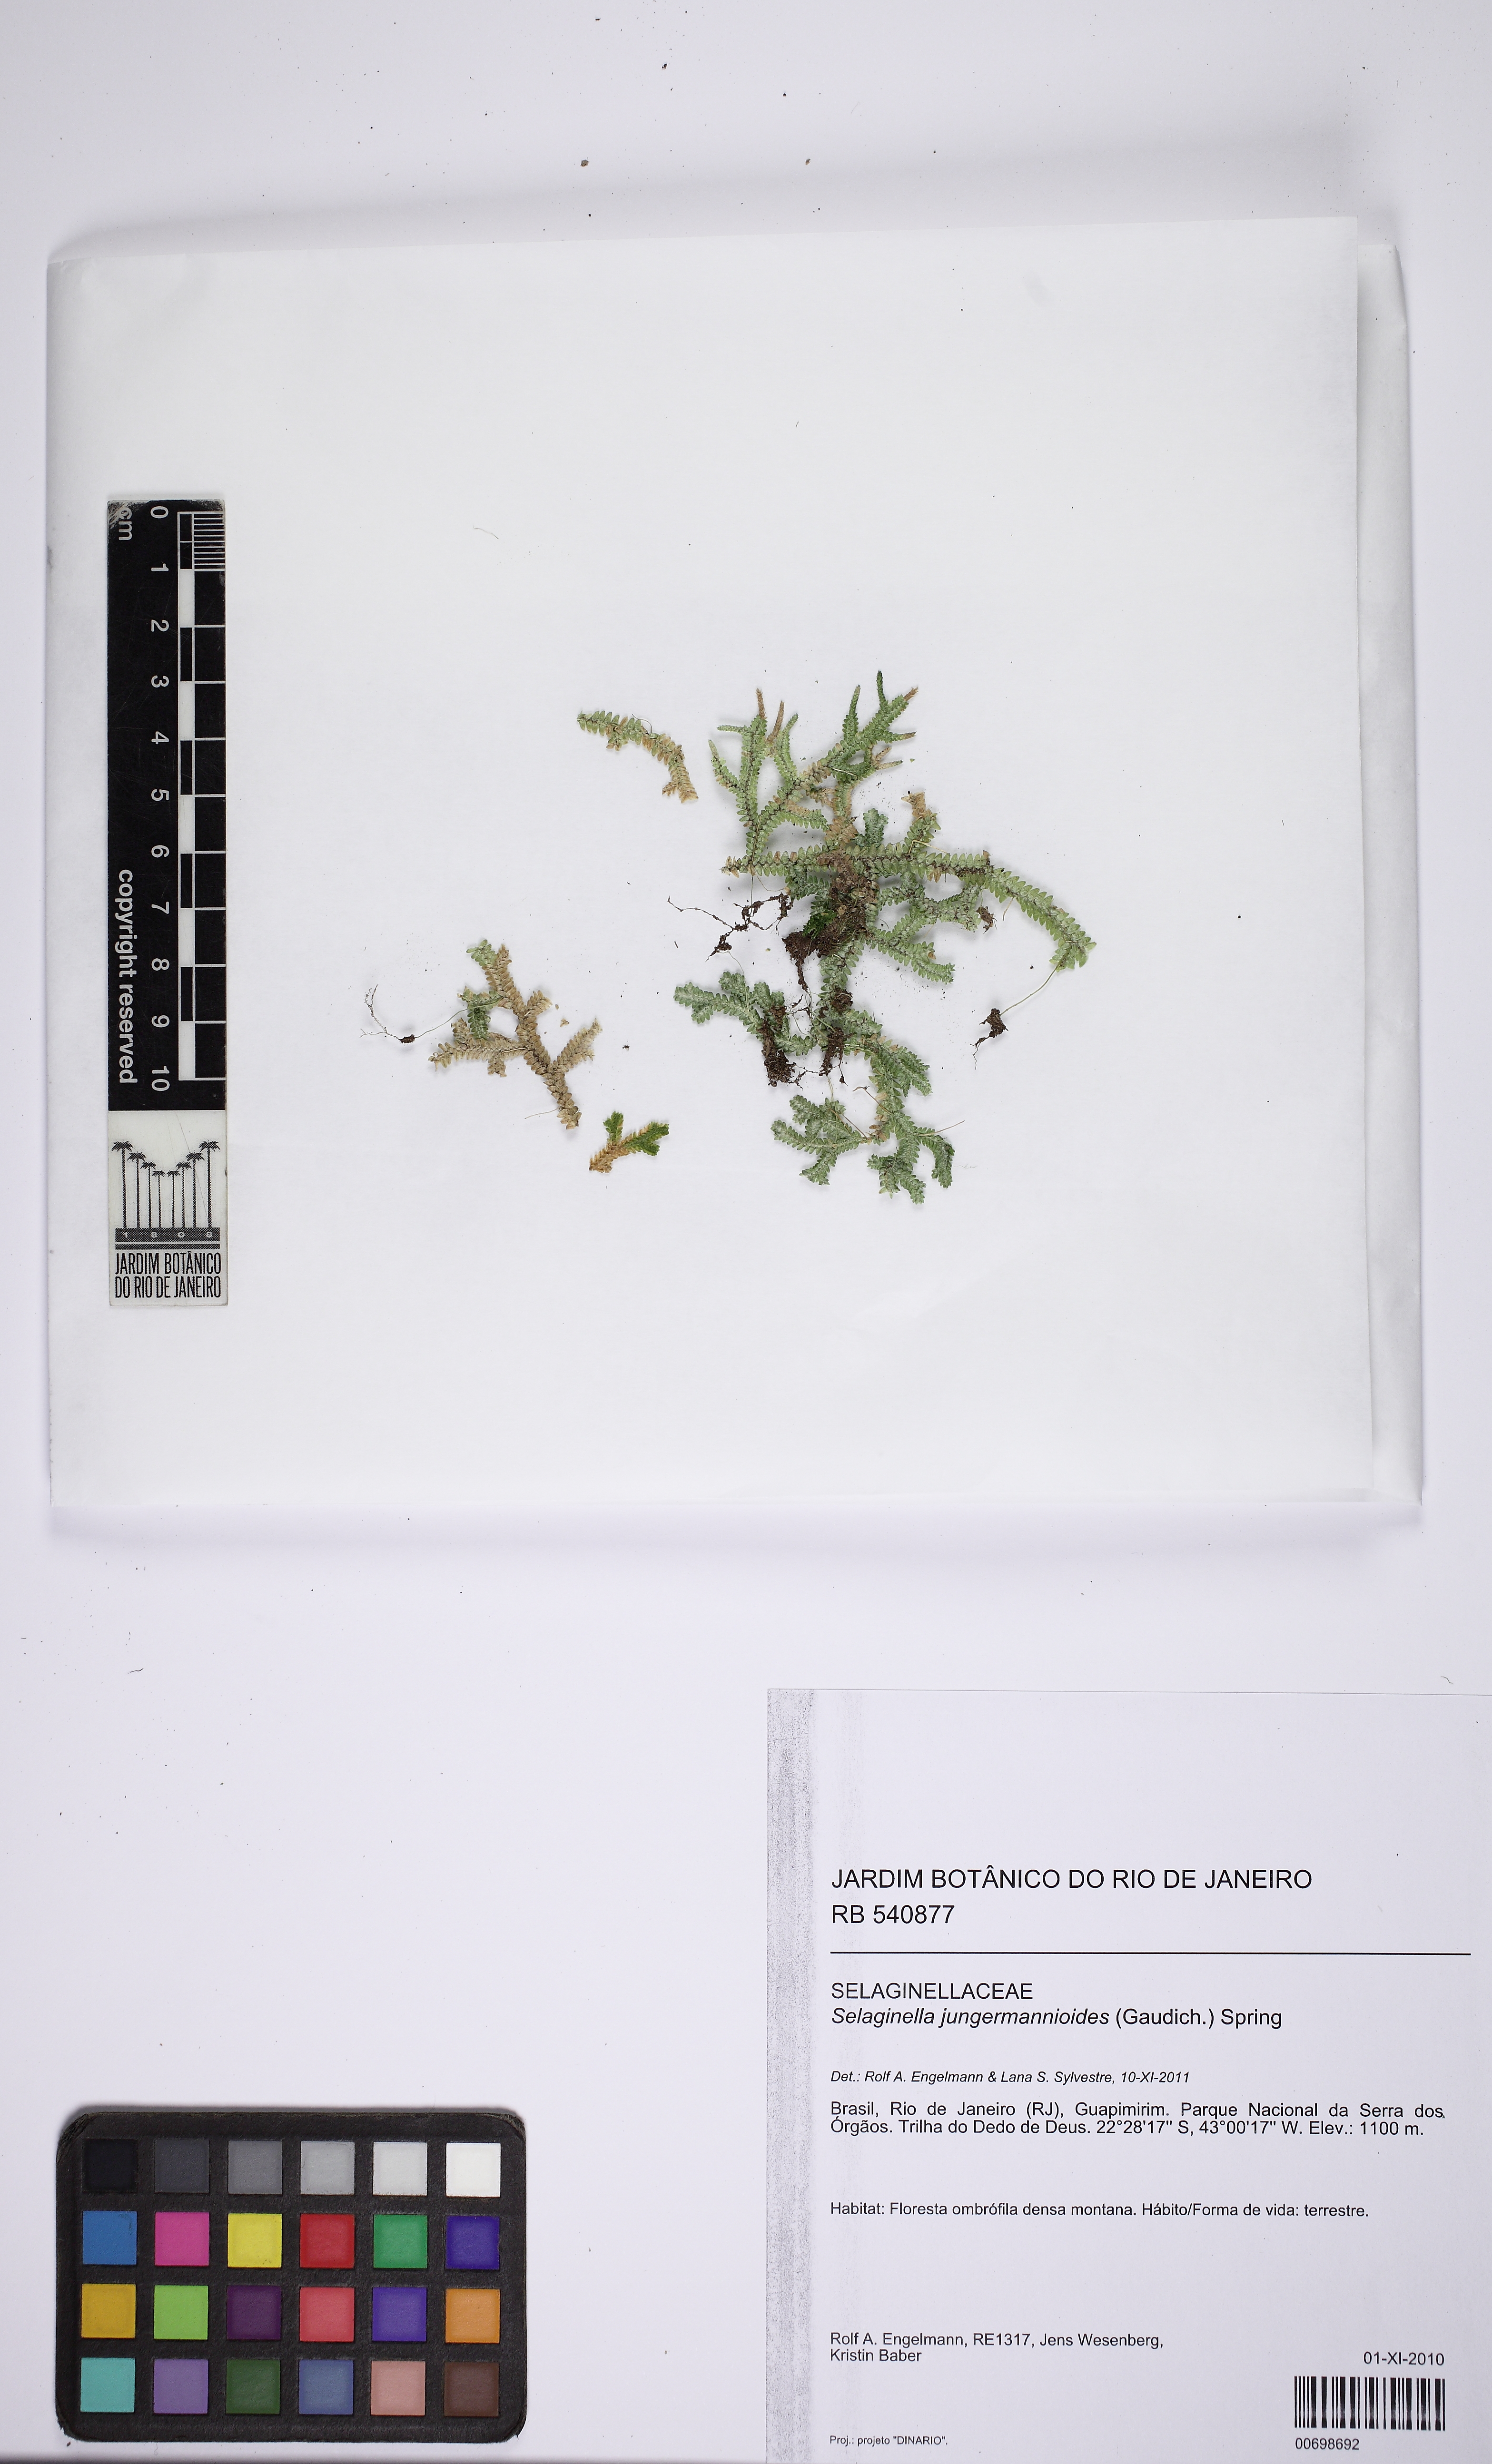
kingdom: Plantae
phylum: Tracheophyta
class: Lycopodiopsida
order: Selaginellales
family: Selaginellaceae
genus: Selaginella
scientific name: Selaginella jungermannioides
